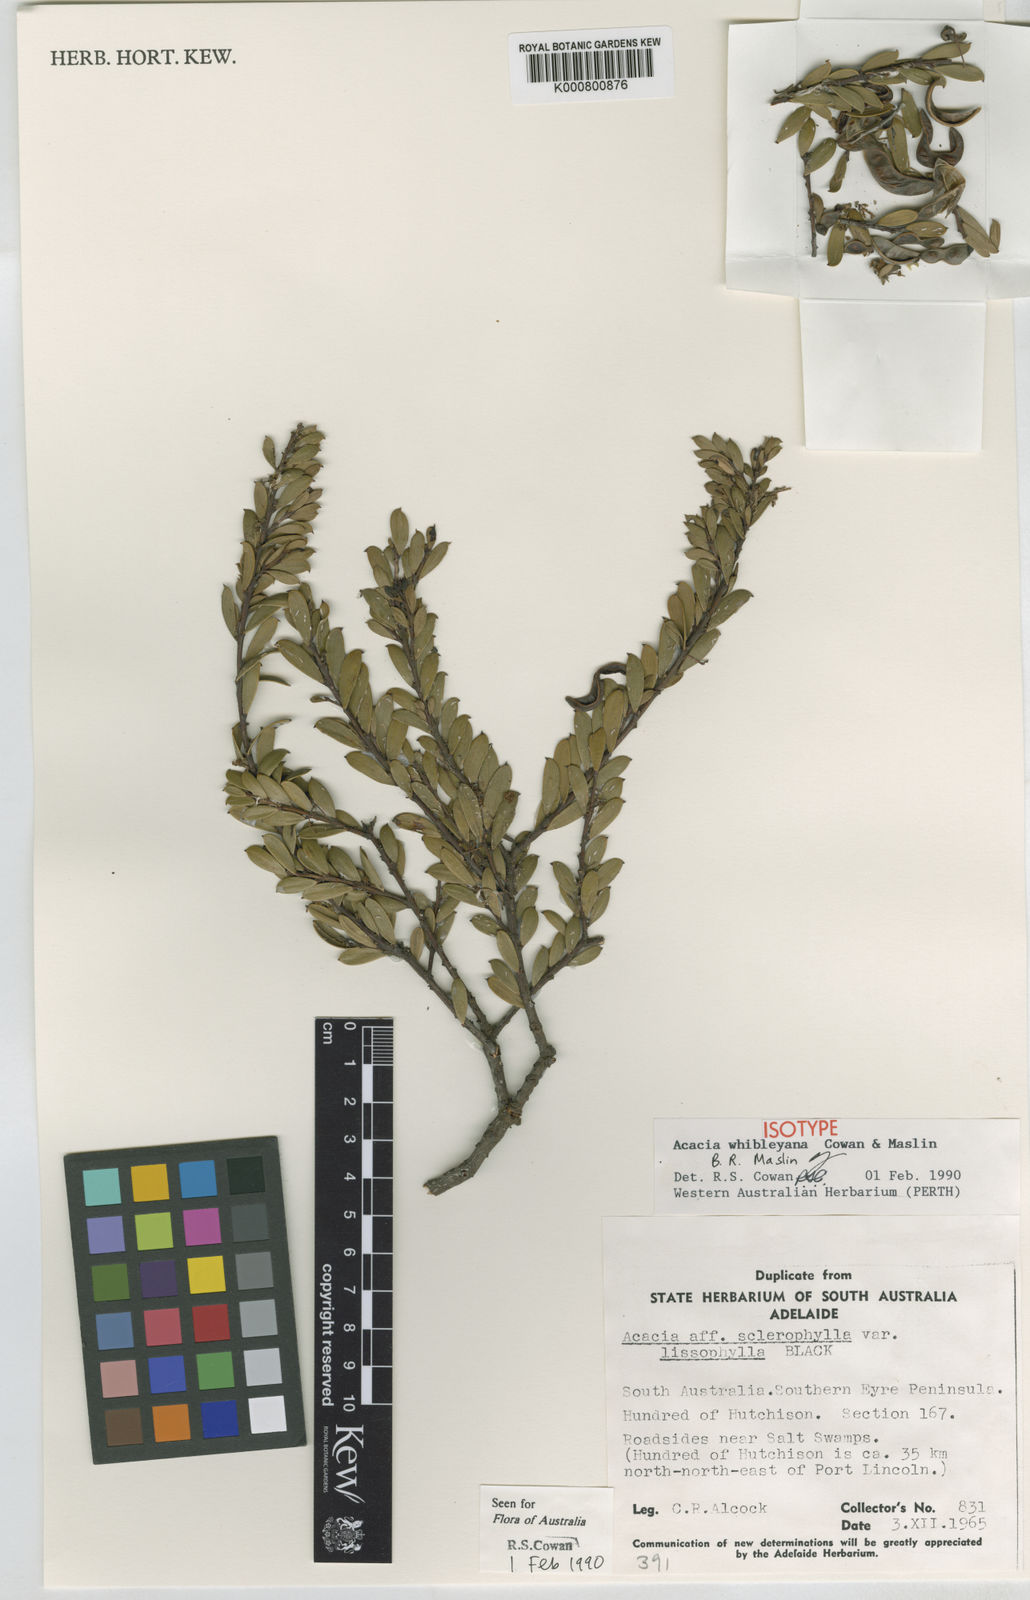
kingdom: Plantae
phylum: Tracheophyta
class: Magnoliopsida
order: Fabales
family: Fabaceae
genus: Acacia
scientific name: Acacia whibleyana
